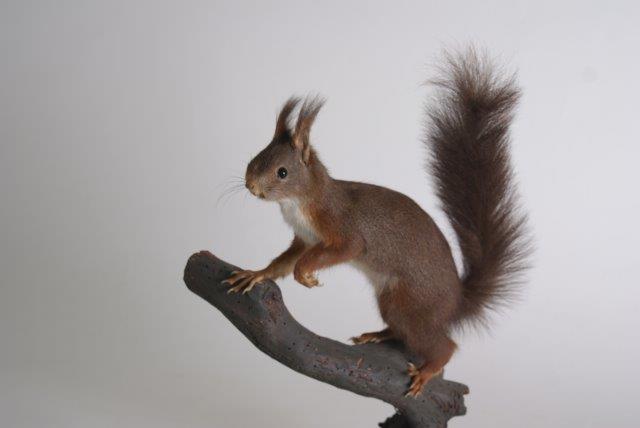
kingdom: Animalia
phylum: Chordata
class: Mammalia
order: Rodentia
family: Sciuridae
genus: Sciurus
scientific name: Sciurus vulgaris
